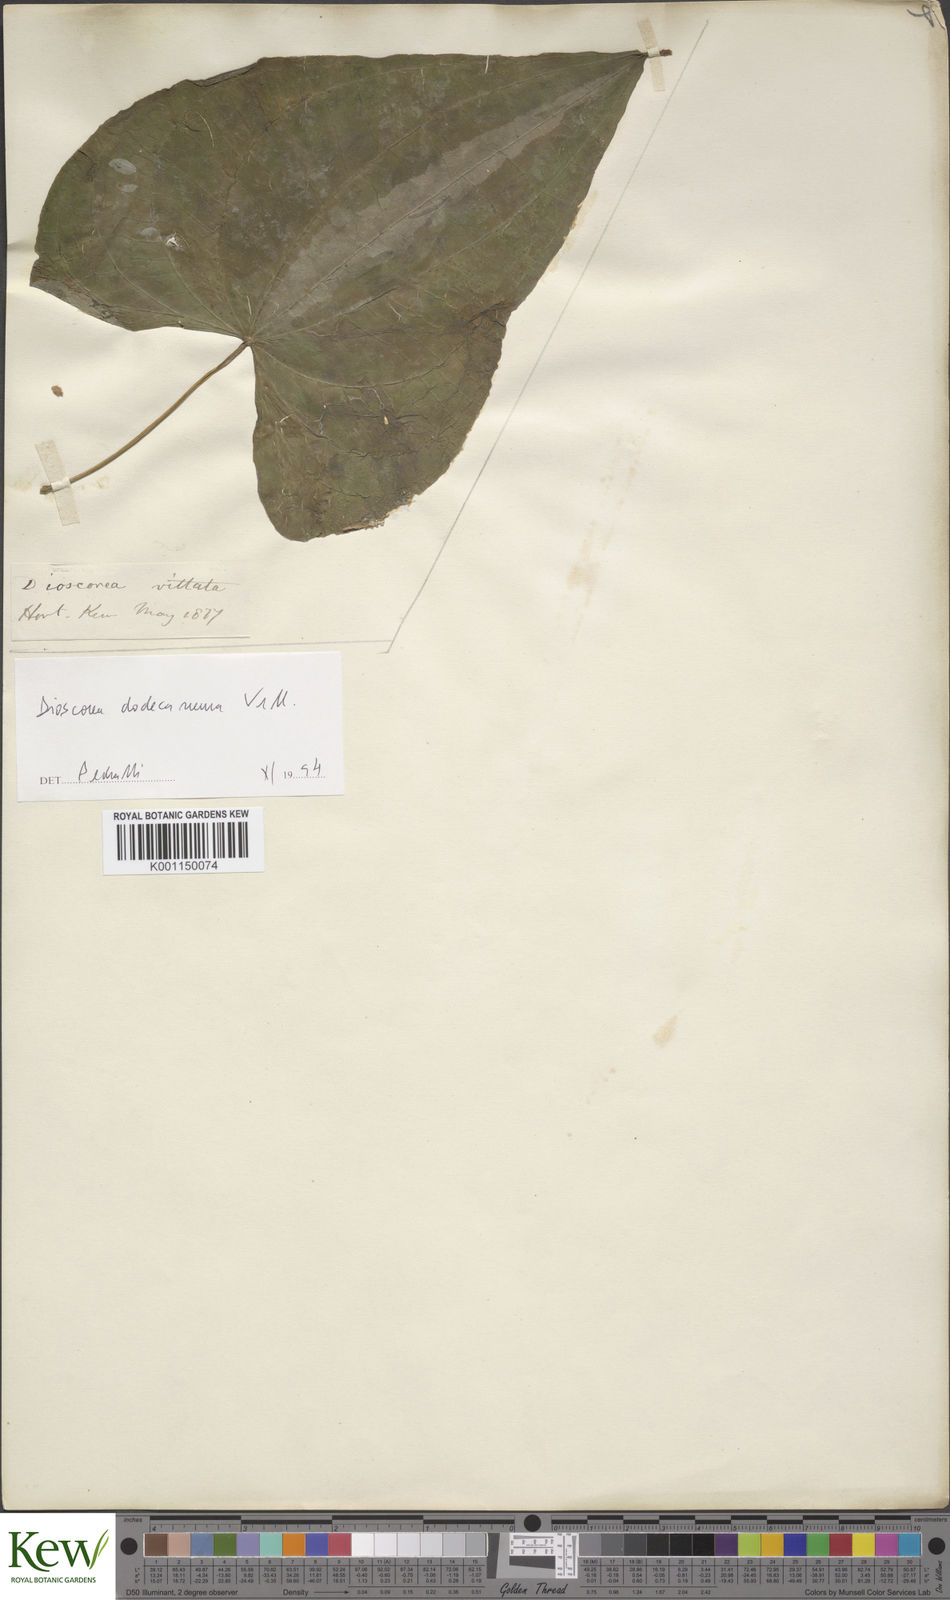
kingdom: Plantae
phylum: Tracheophyta
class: Liliopsida
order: Dioscoreales
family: Dioscoreaceae
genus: Dioscorea
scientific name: Dioscorea dodecaneura
